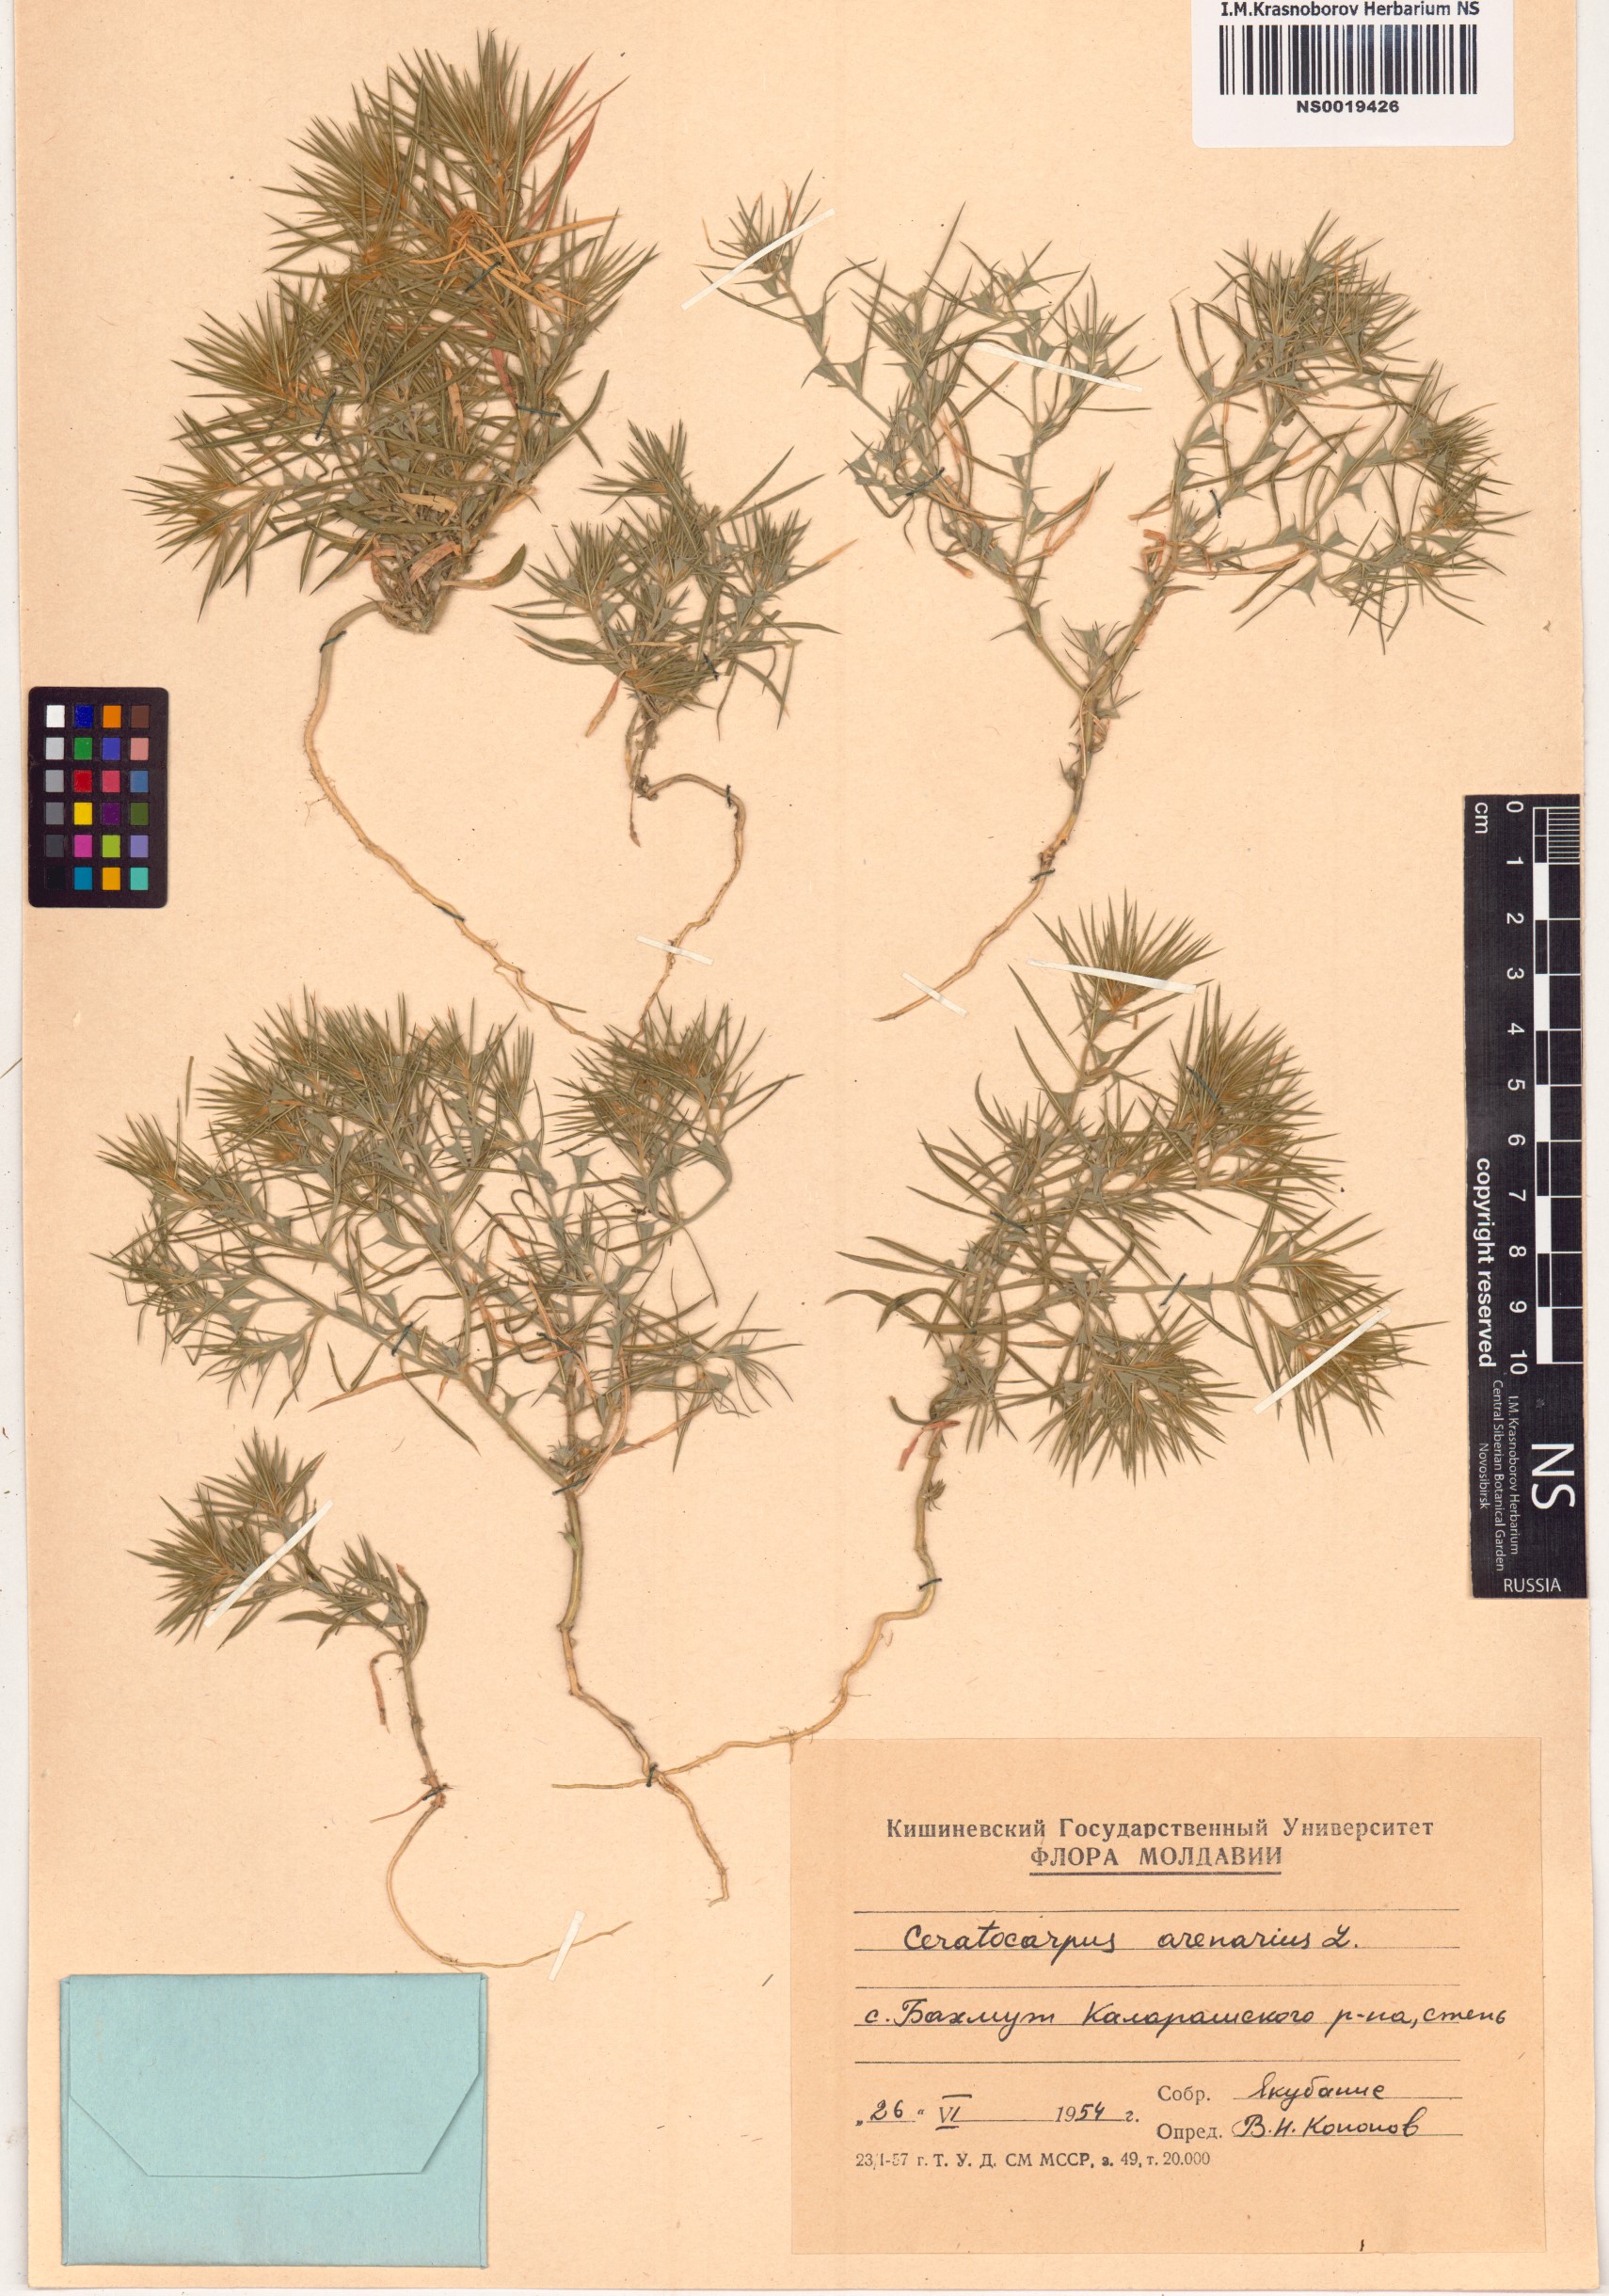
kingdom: Plantae
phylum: Tracheophyta
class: Magnoliopsida
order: Caryophyllales
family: Amaranthaceae
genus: Ceratocarpus
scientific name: Ceratocarpus arenarius
